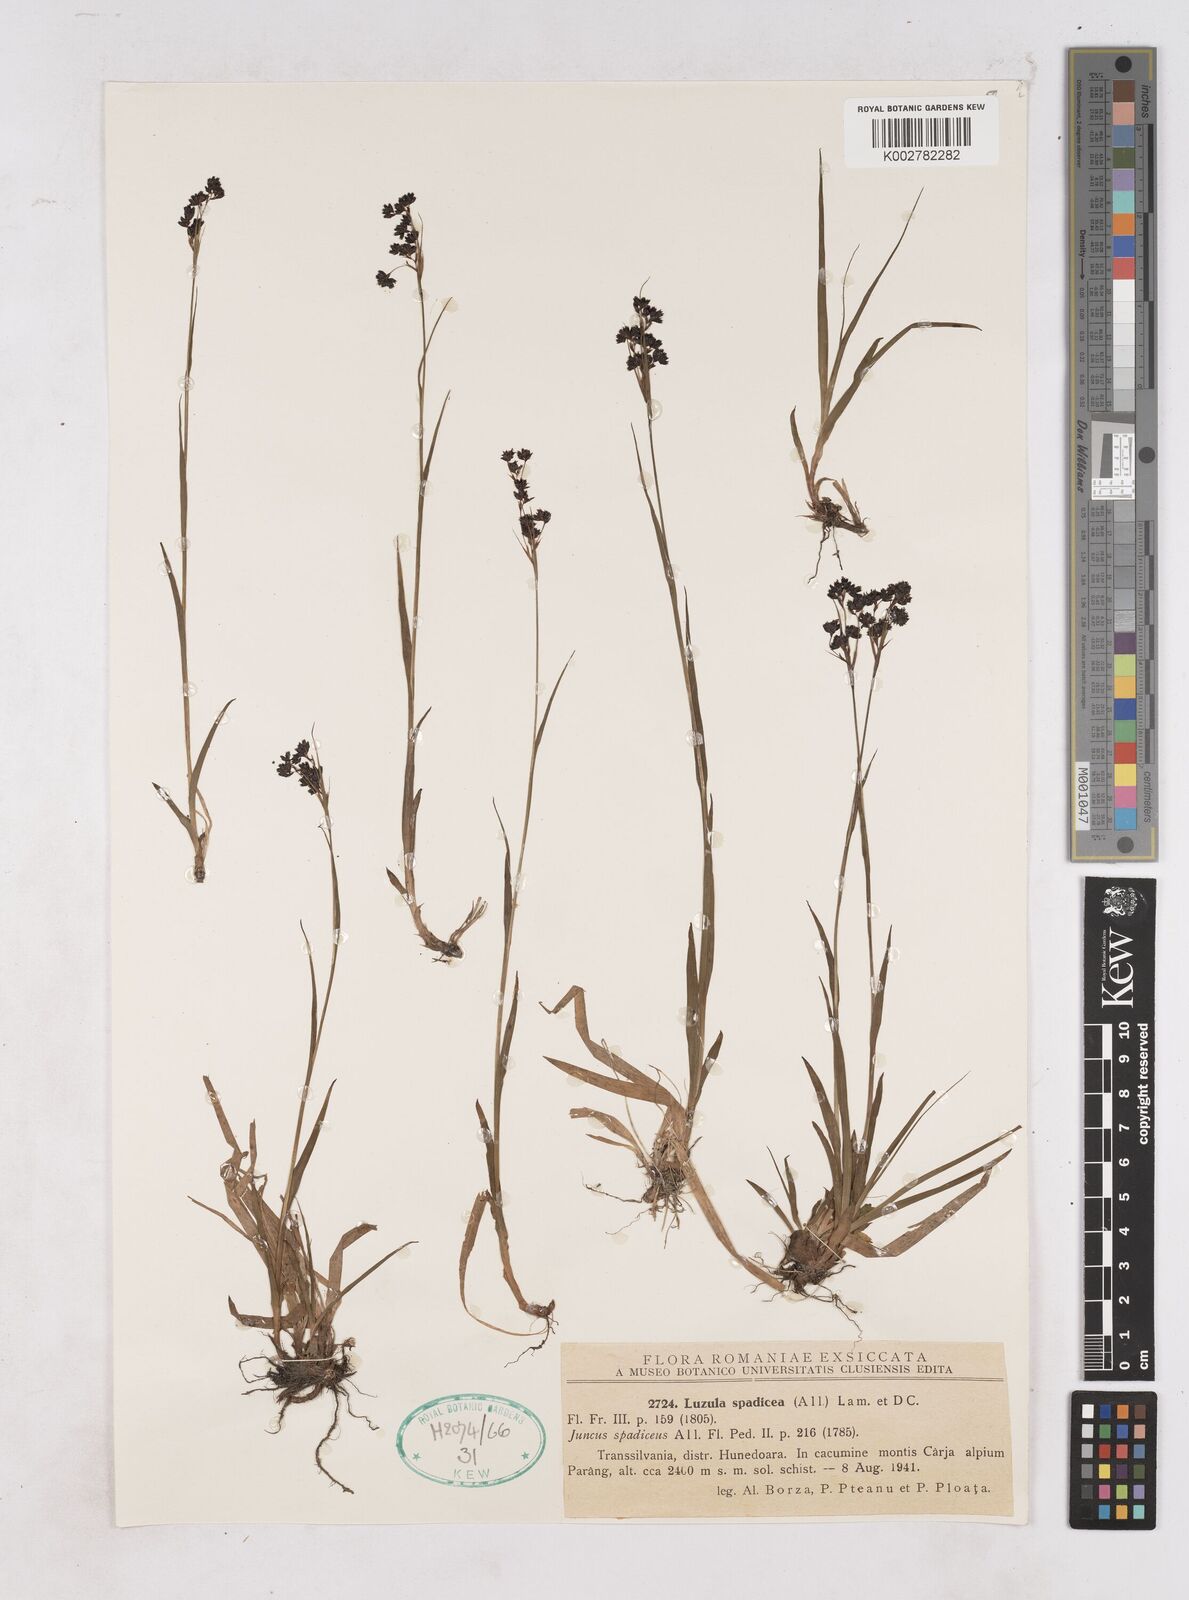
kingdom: Plantae
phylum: Tracheophyta
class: Liliopsida
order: Poales
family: Juncaceae
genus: Luzula
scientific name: Luzula alpinopilosa
